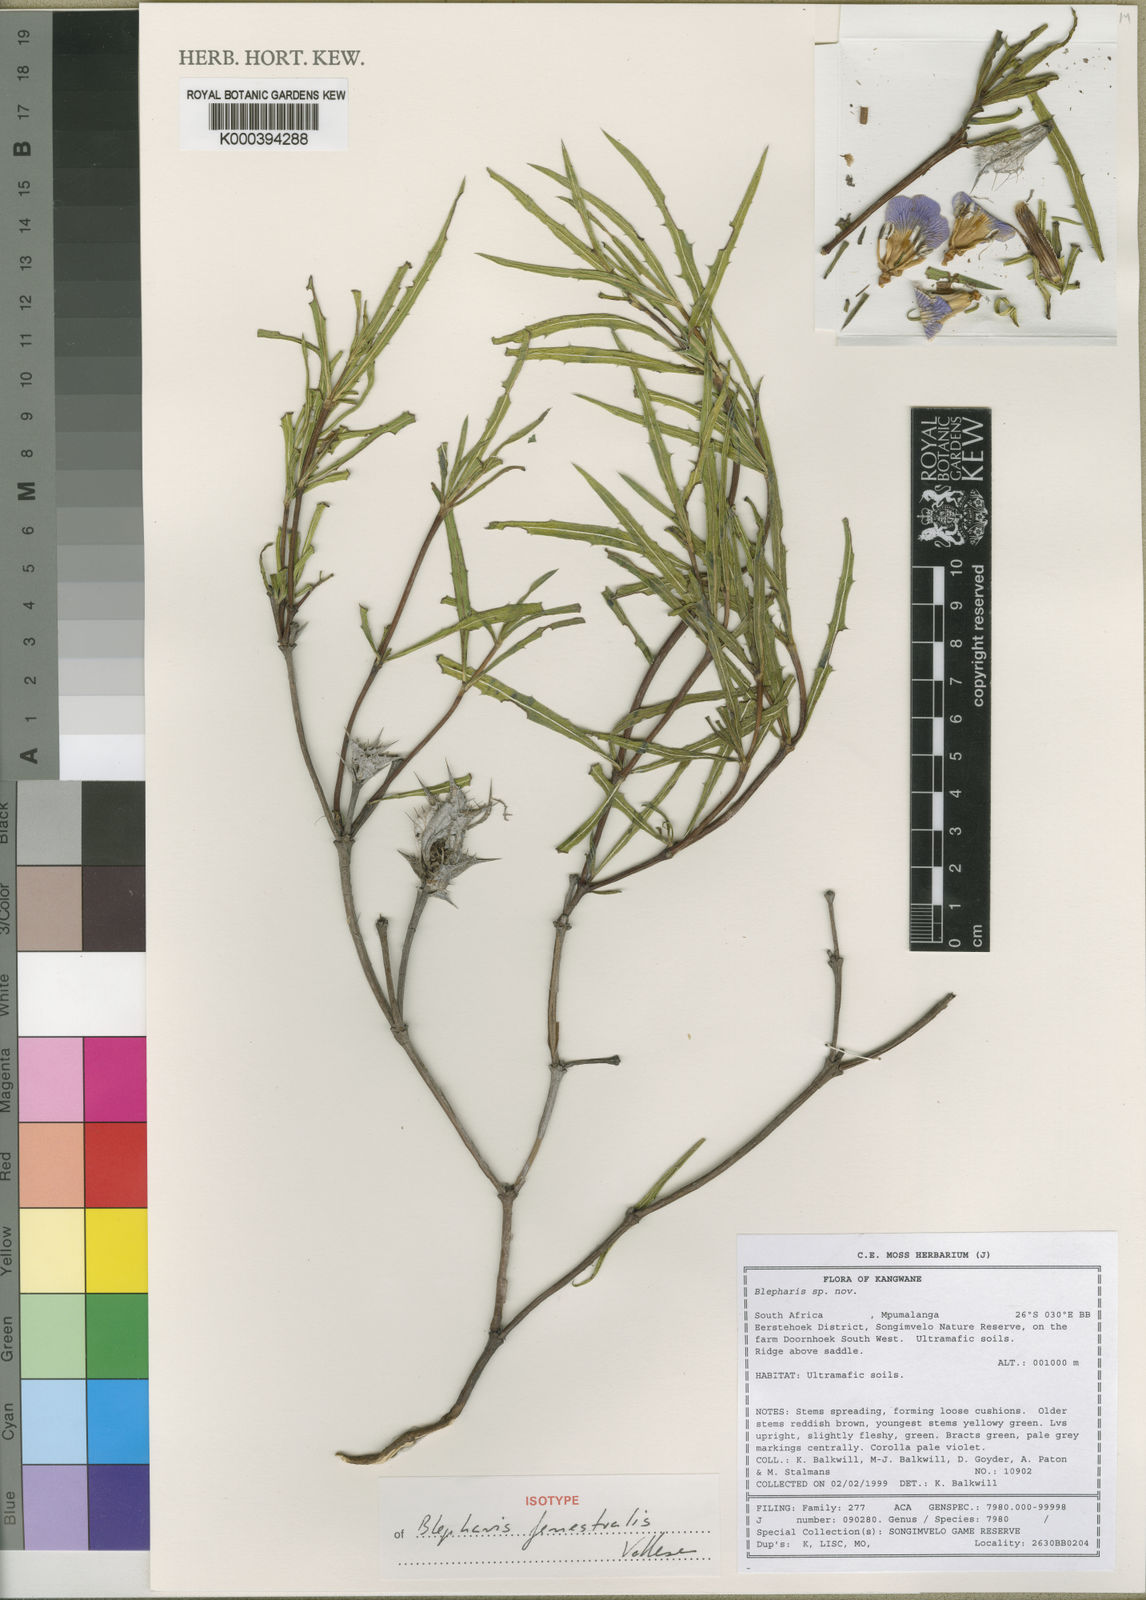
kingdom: Plantae
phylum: Tracheophyta
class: Magnoliopsida
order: Lamiales
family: Acanthaceae
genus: Blepharis
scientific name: Blepharis fenestralis
